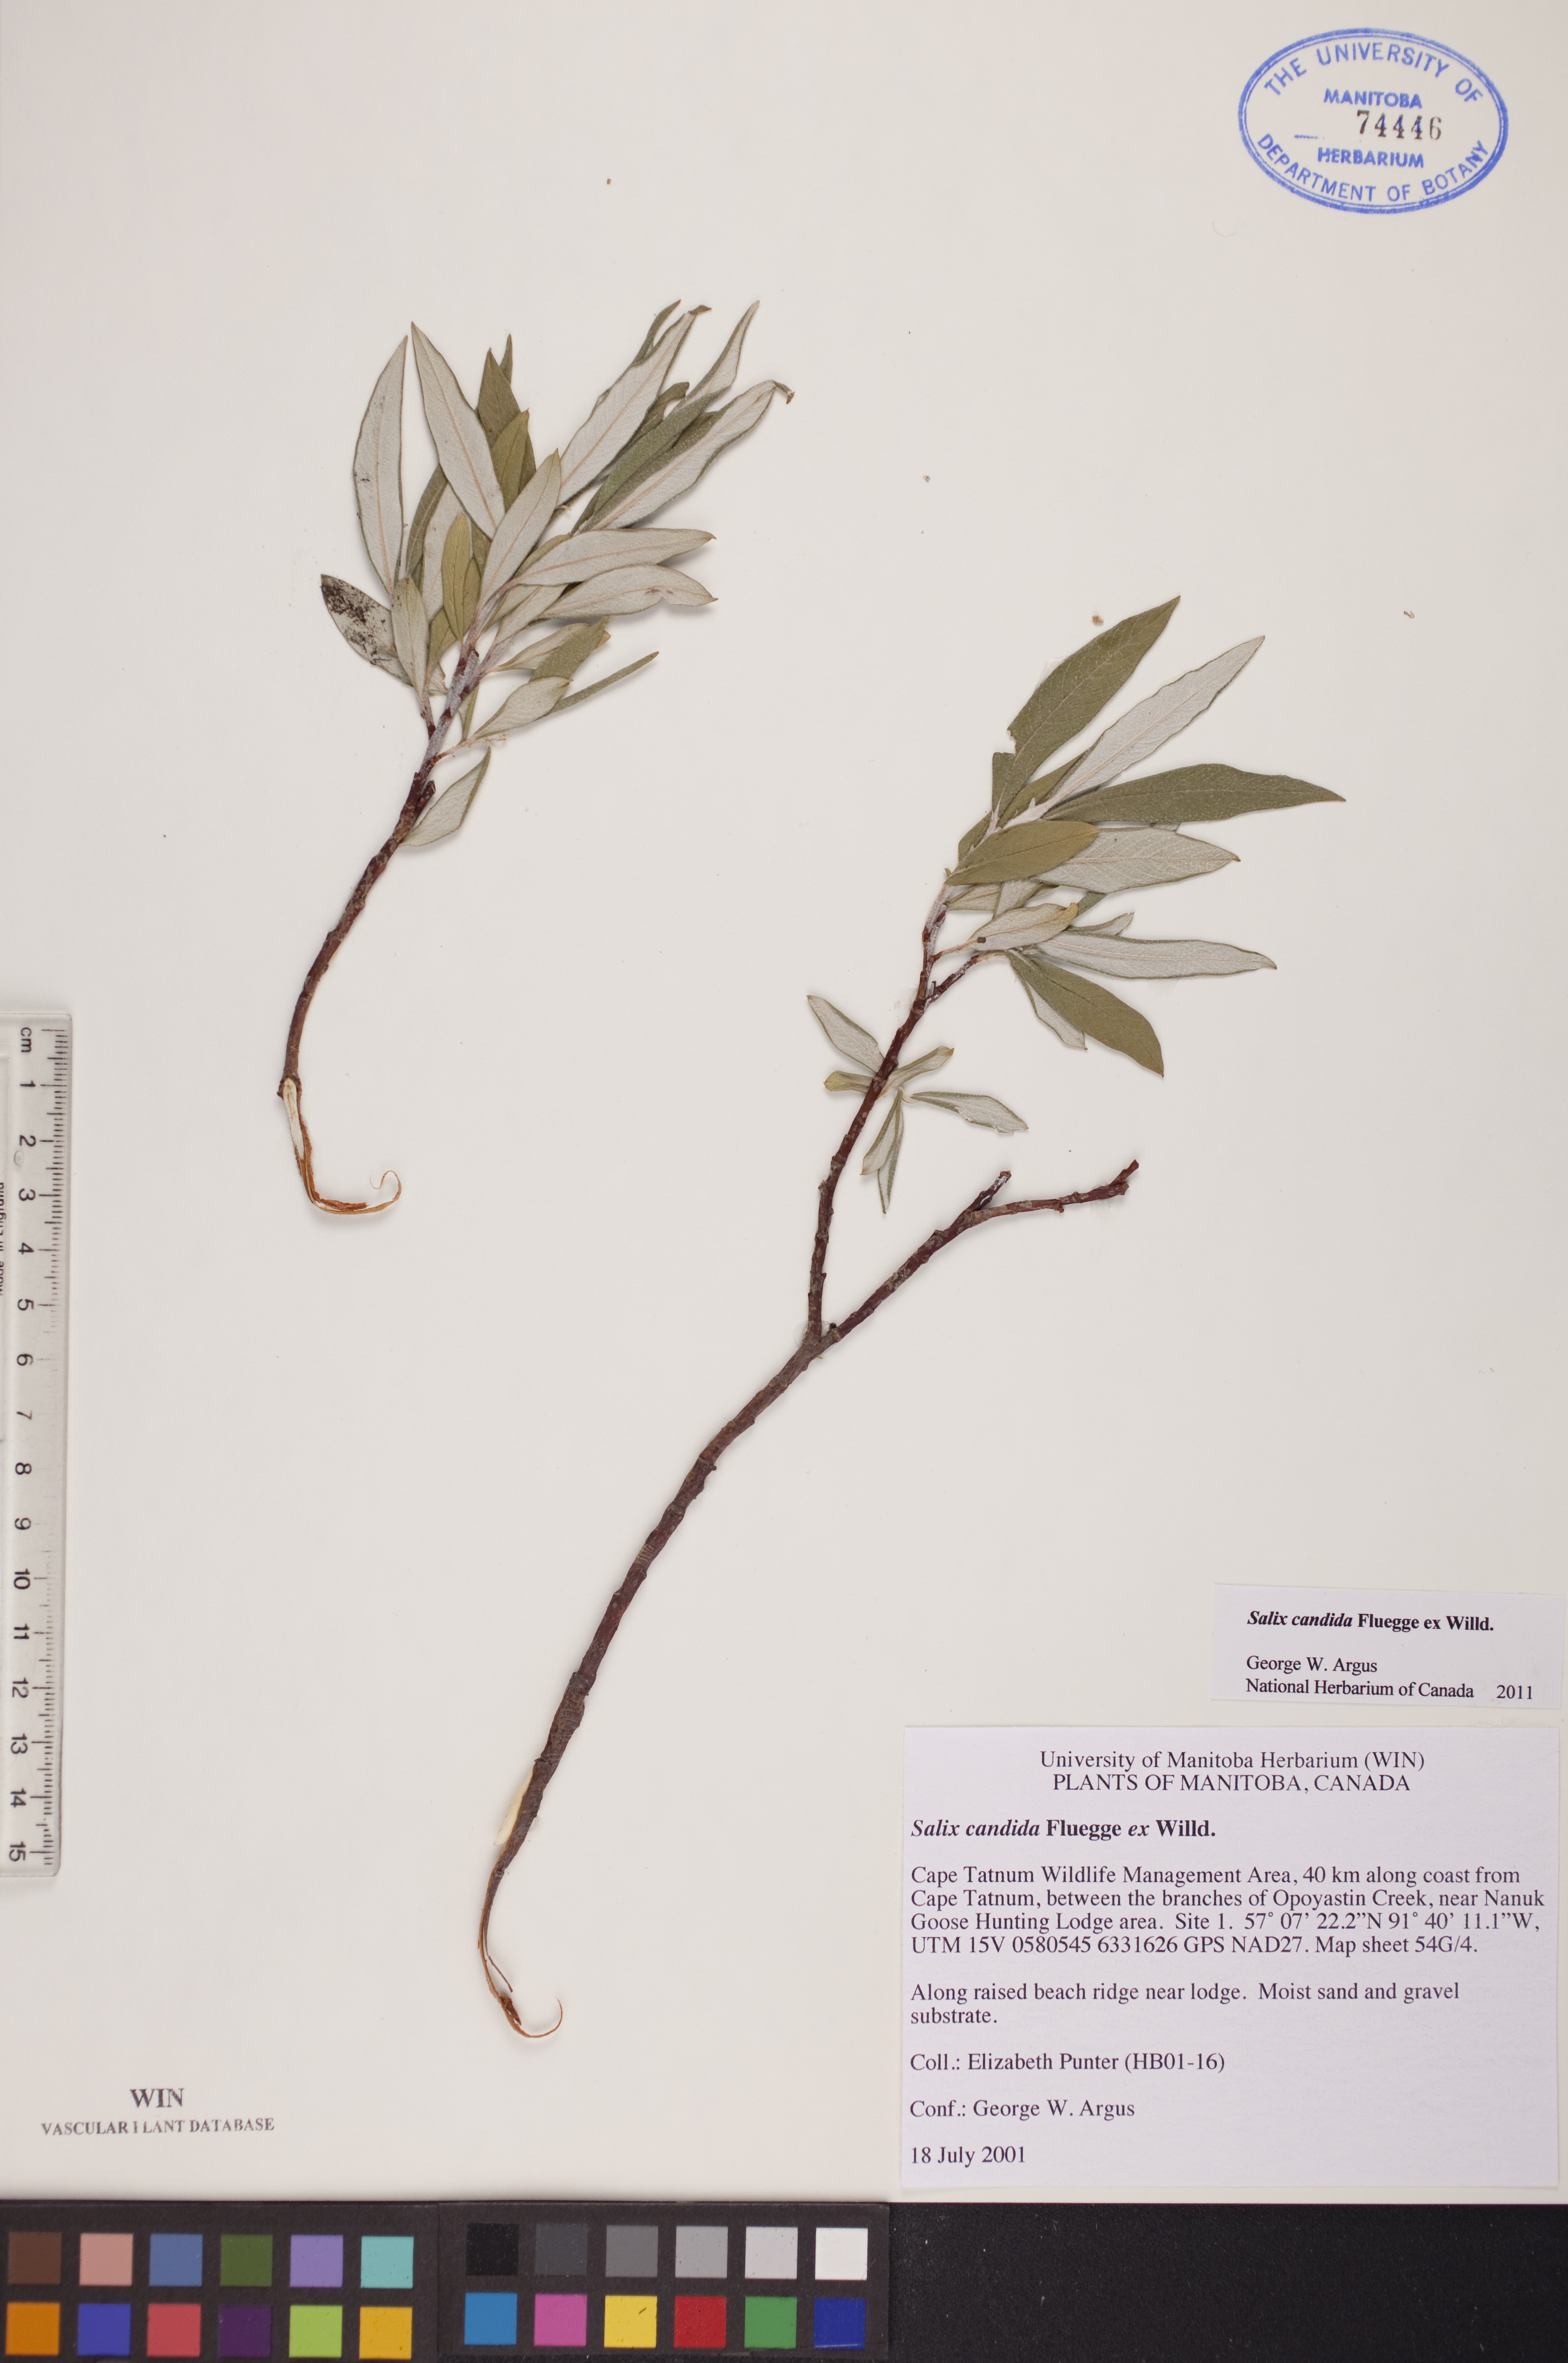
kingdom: Plantae
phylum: Tracheophyta
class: Magnoliopsida
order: Malpighiales
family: Salicaceae
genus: Salix
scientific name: Salix candida
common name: Hoary willow
